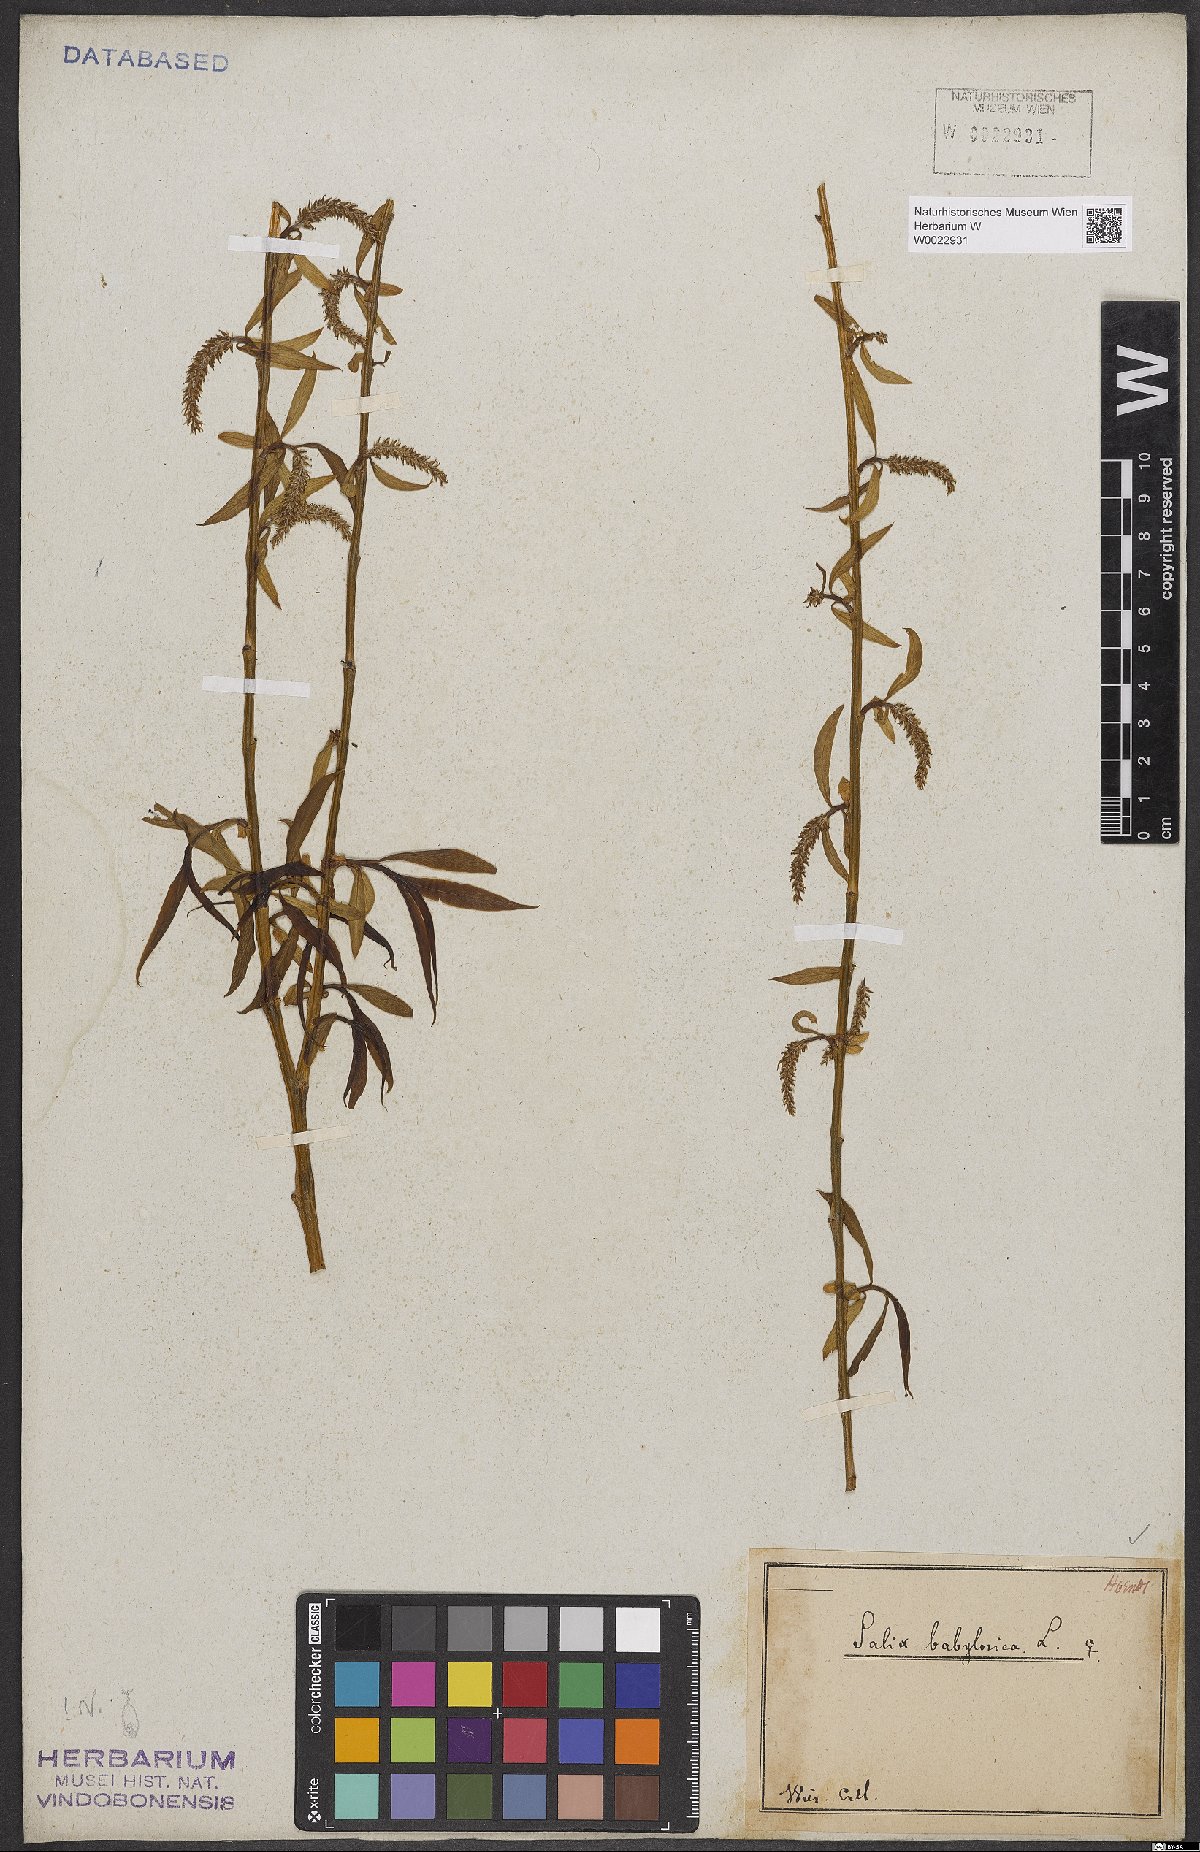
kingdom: Plantae
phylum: Tracheophyta
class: Magnoliopsida
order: Malpighiales
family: Salicaceae
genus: Salix
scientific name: Salix babylonica
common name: Weeping willow
